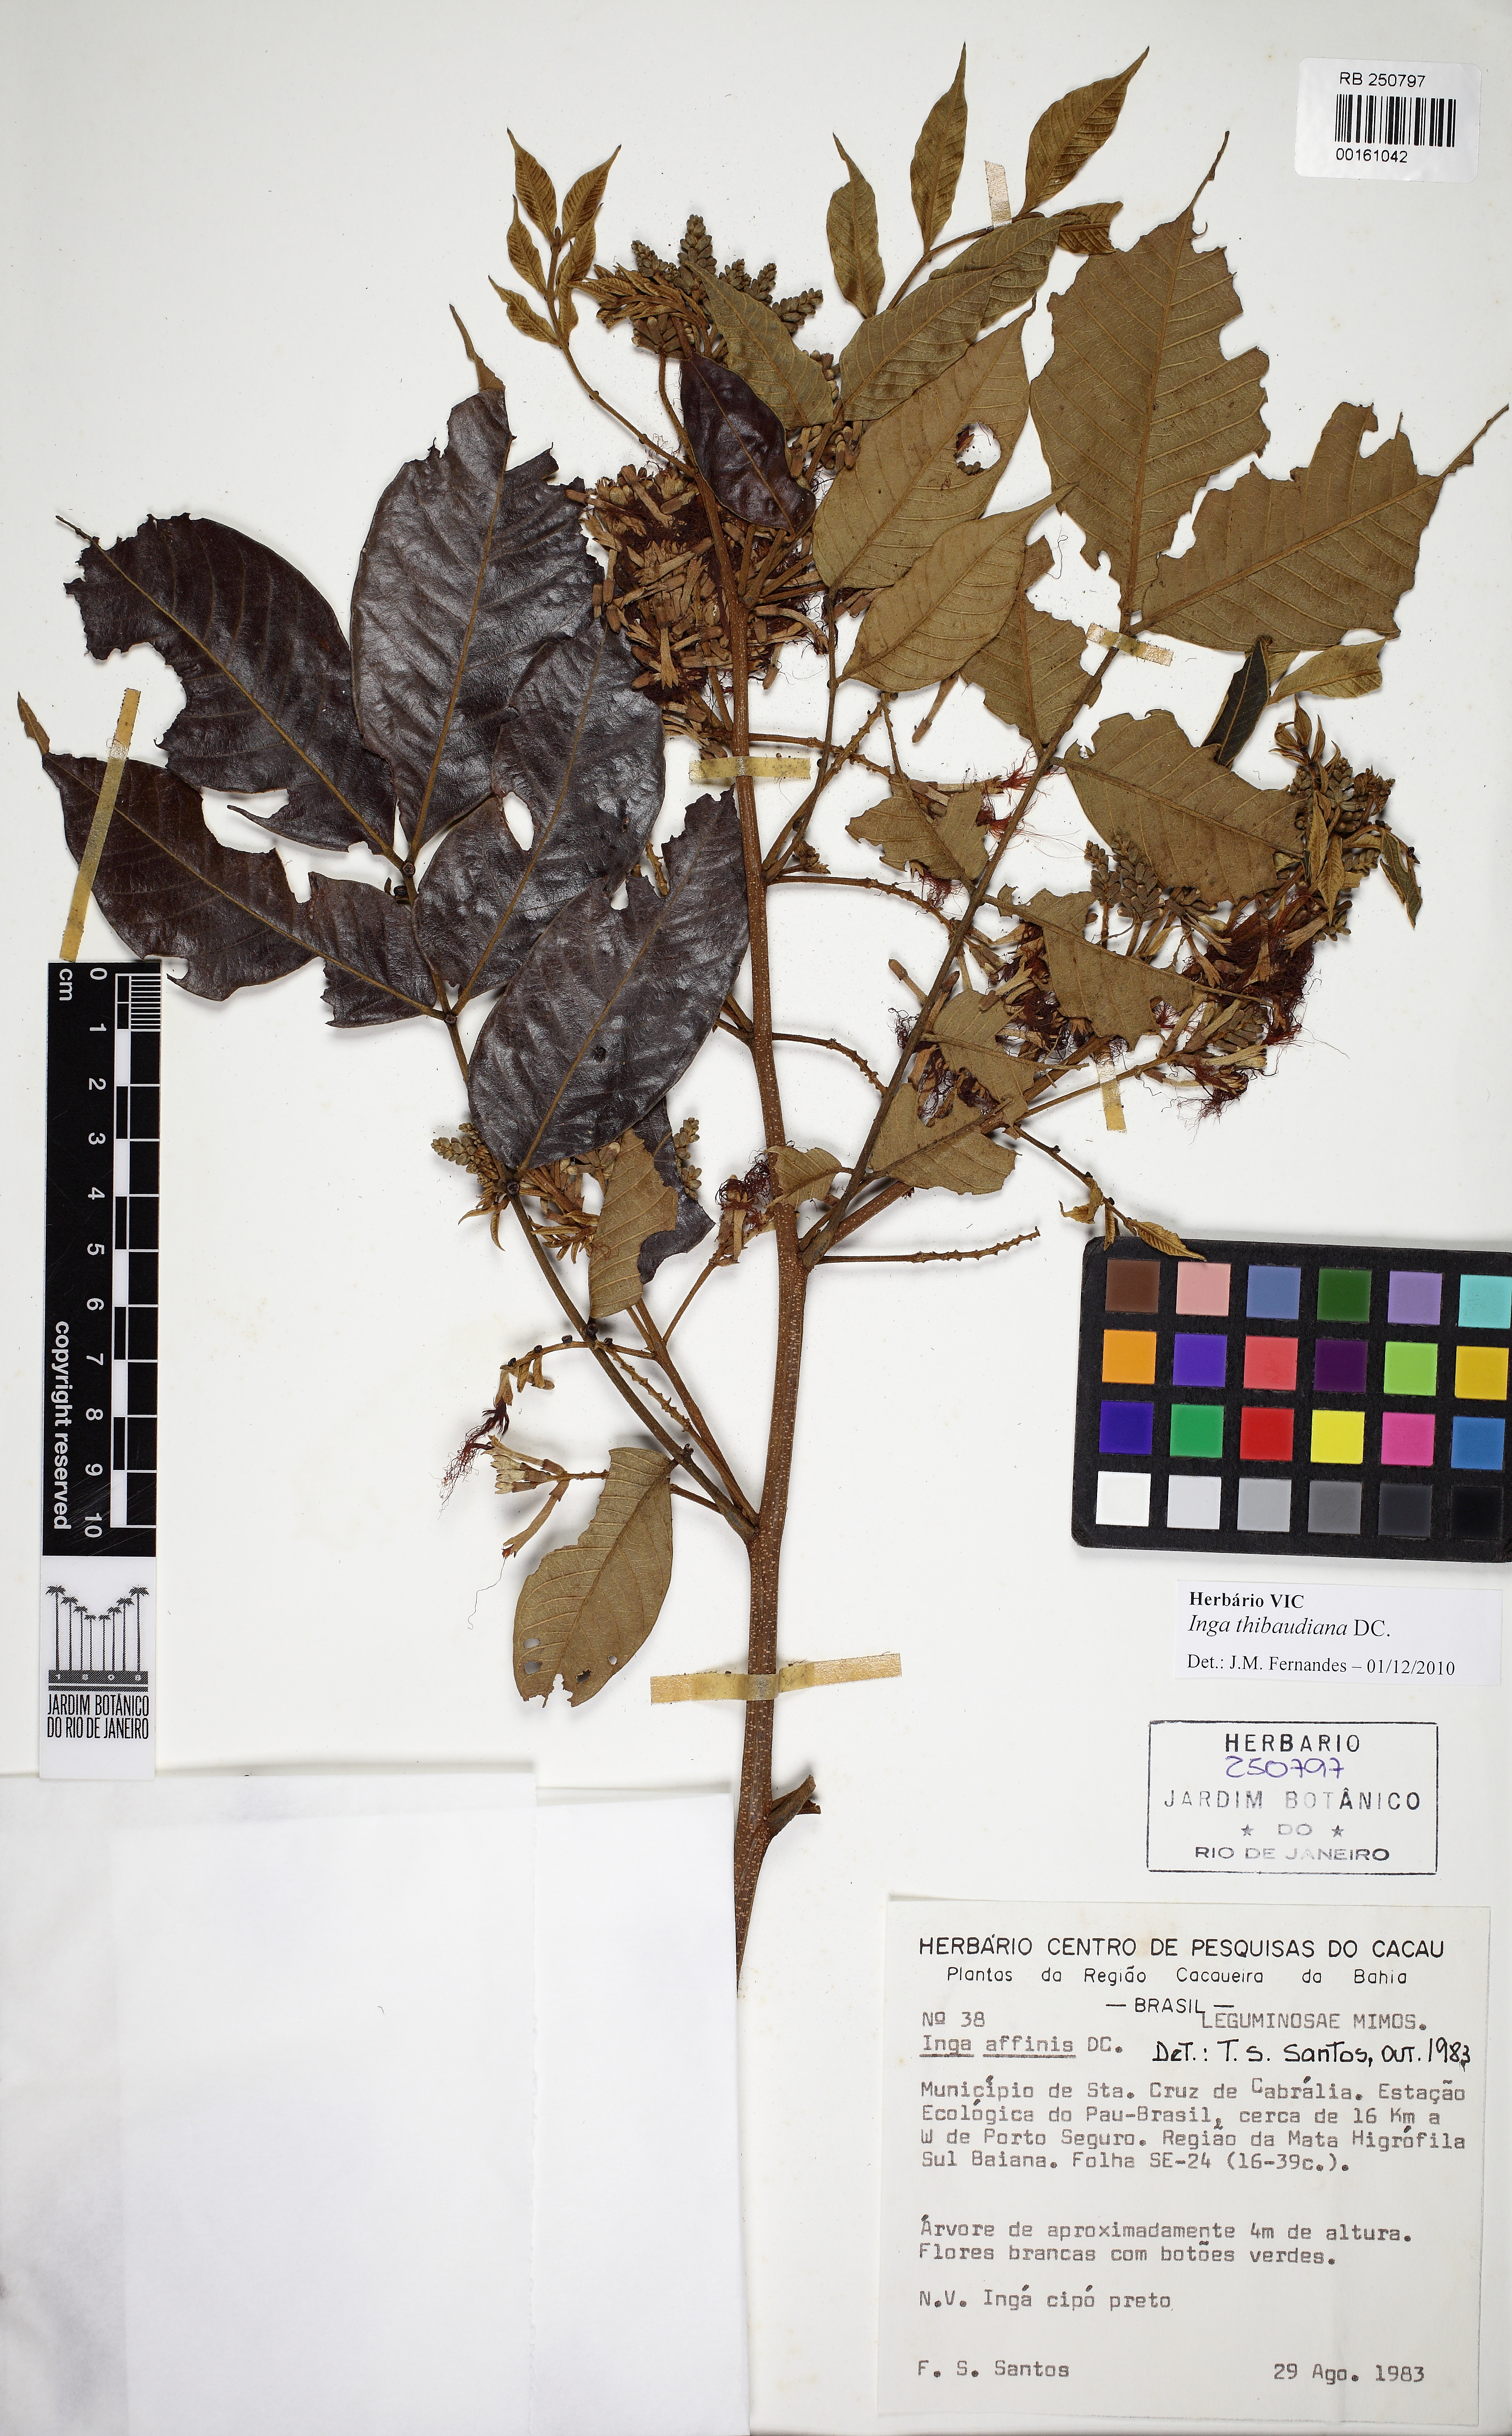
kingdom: Plantae
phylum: Tracheophyta
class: Magnoliopsida
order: Fabales
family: Fabaceae
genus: Inga
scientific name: Inga thibaudiana
